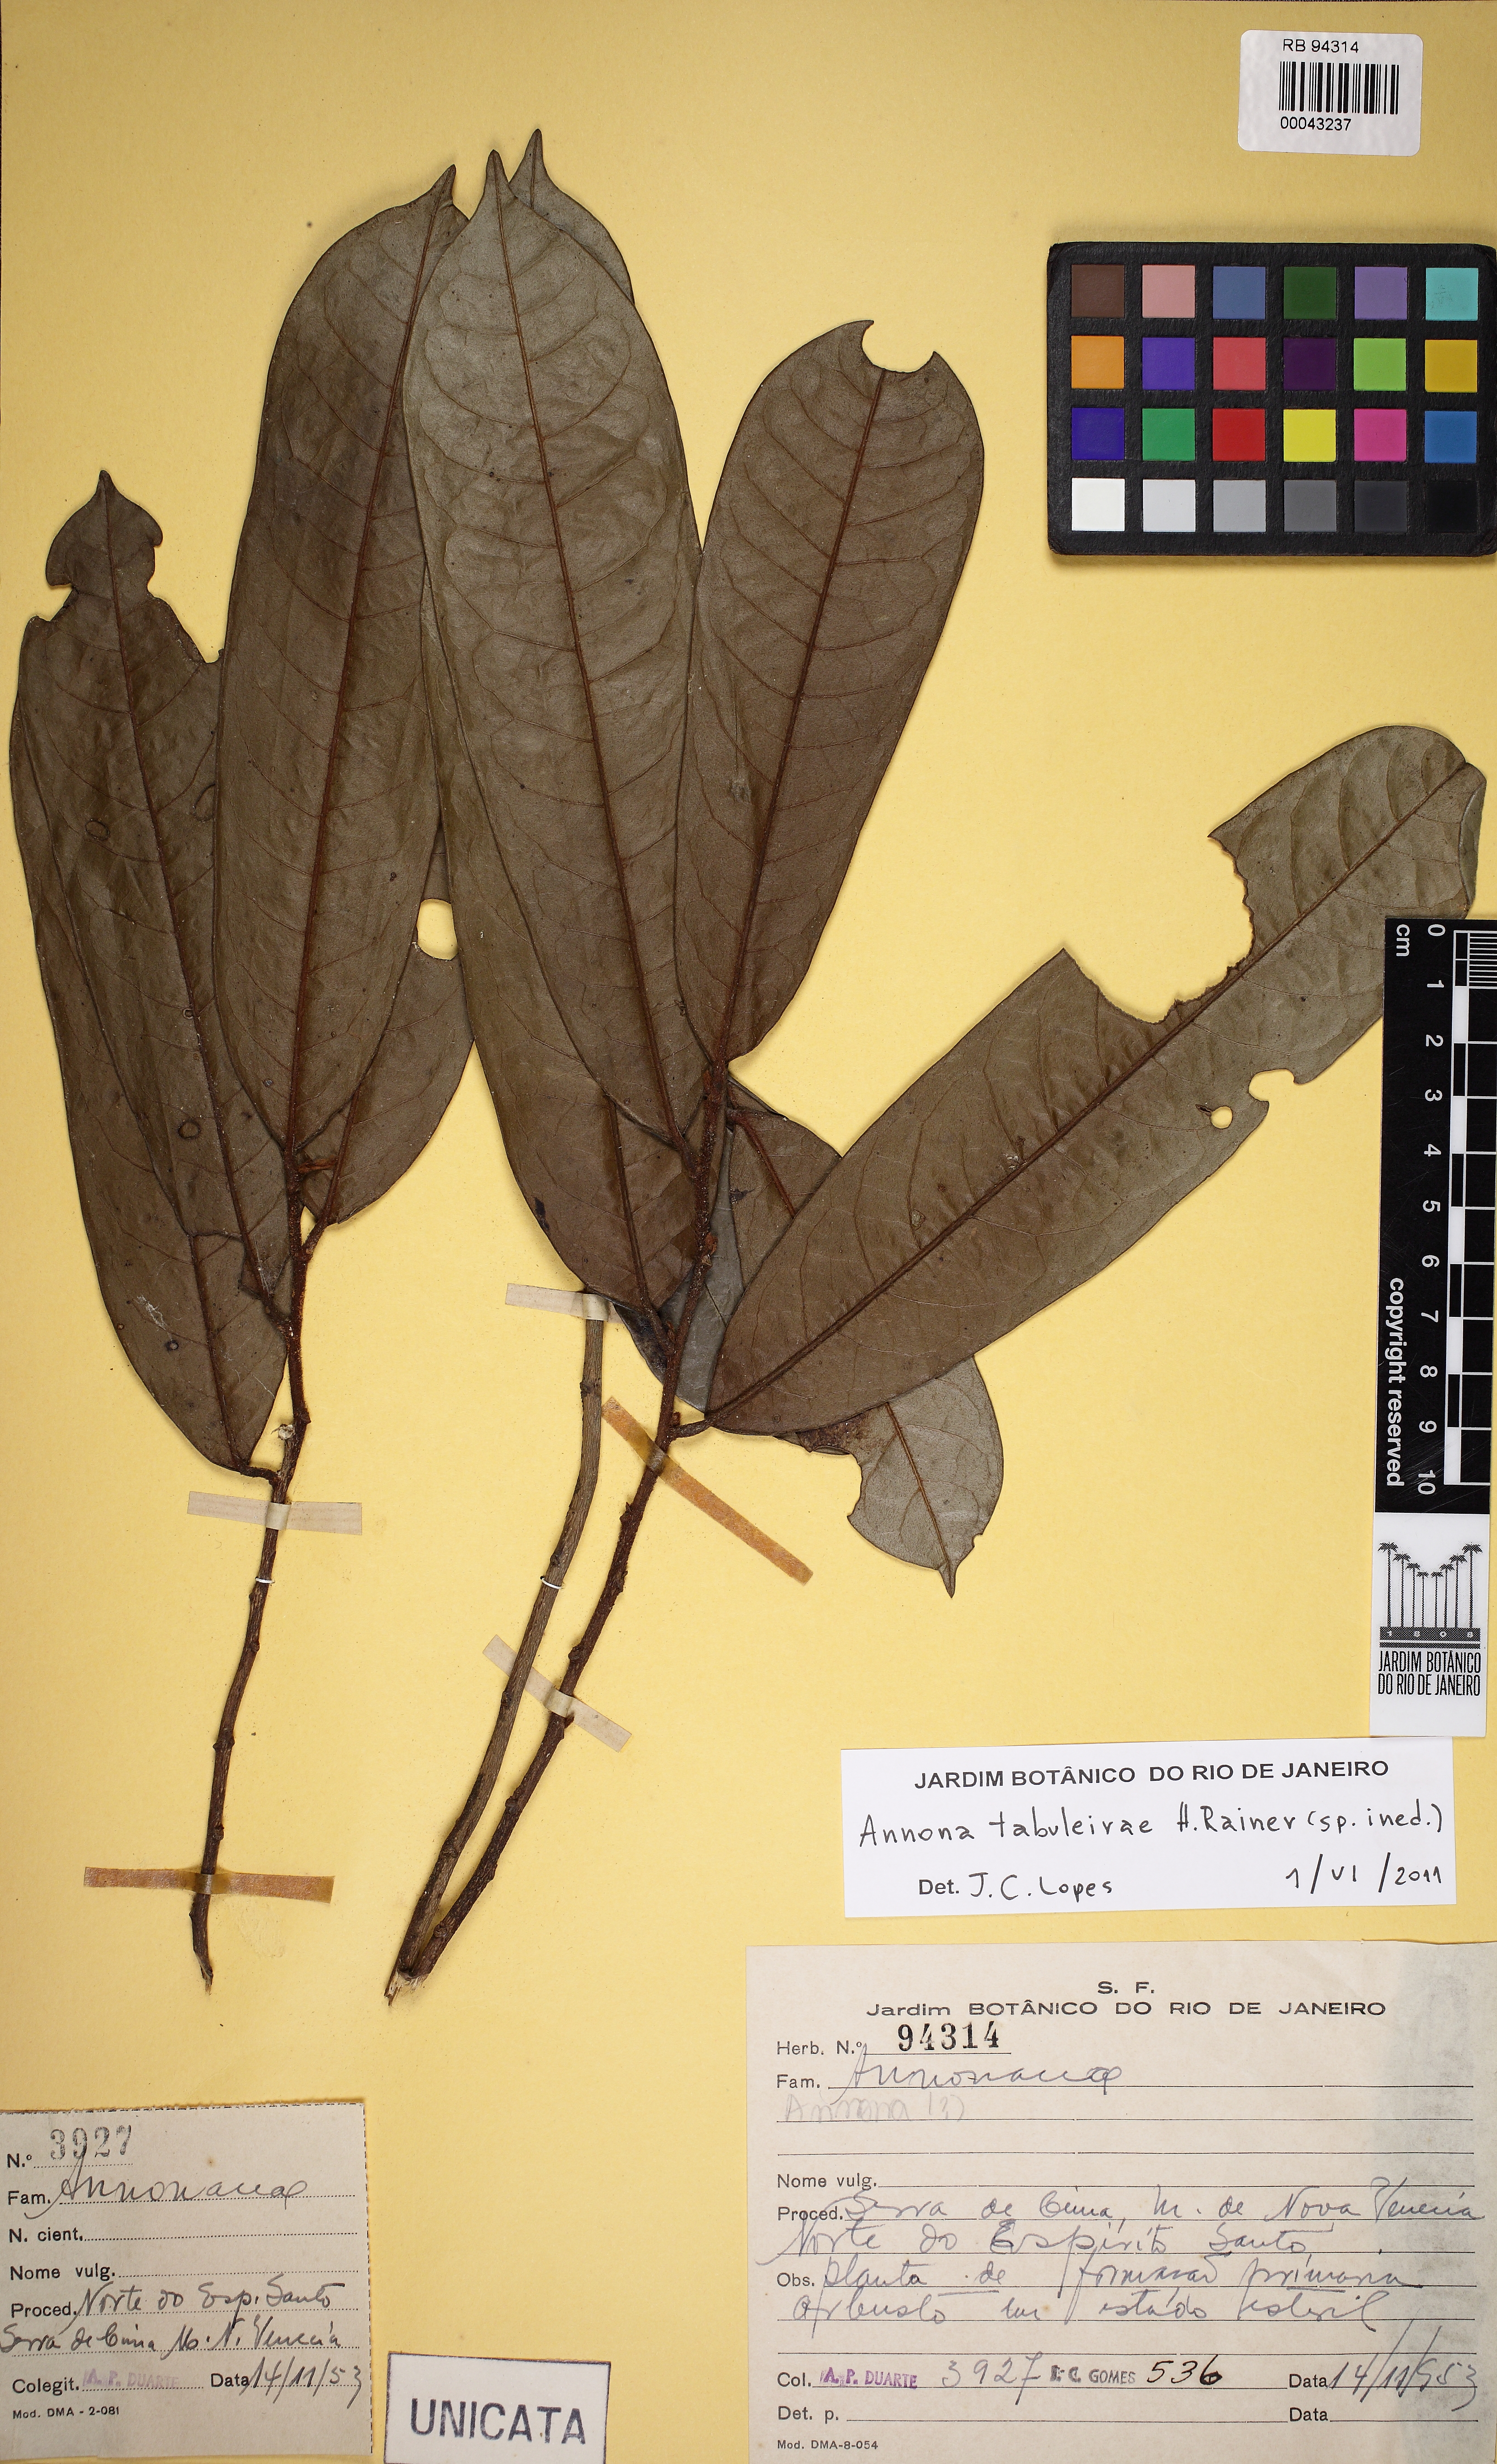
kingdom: Plantae
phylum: Tracheophyta
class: Magnoliopsida
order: Magnoliales
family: Annonaceae
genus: Annona
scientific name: Annona
